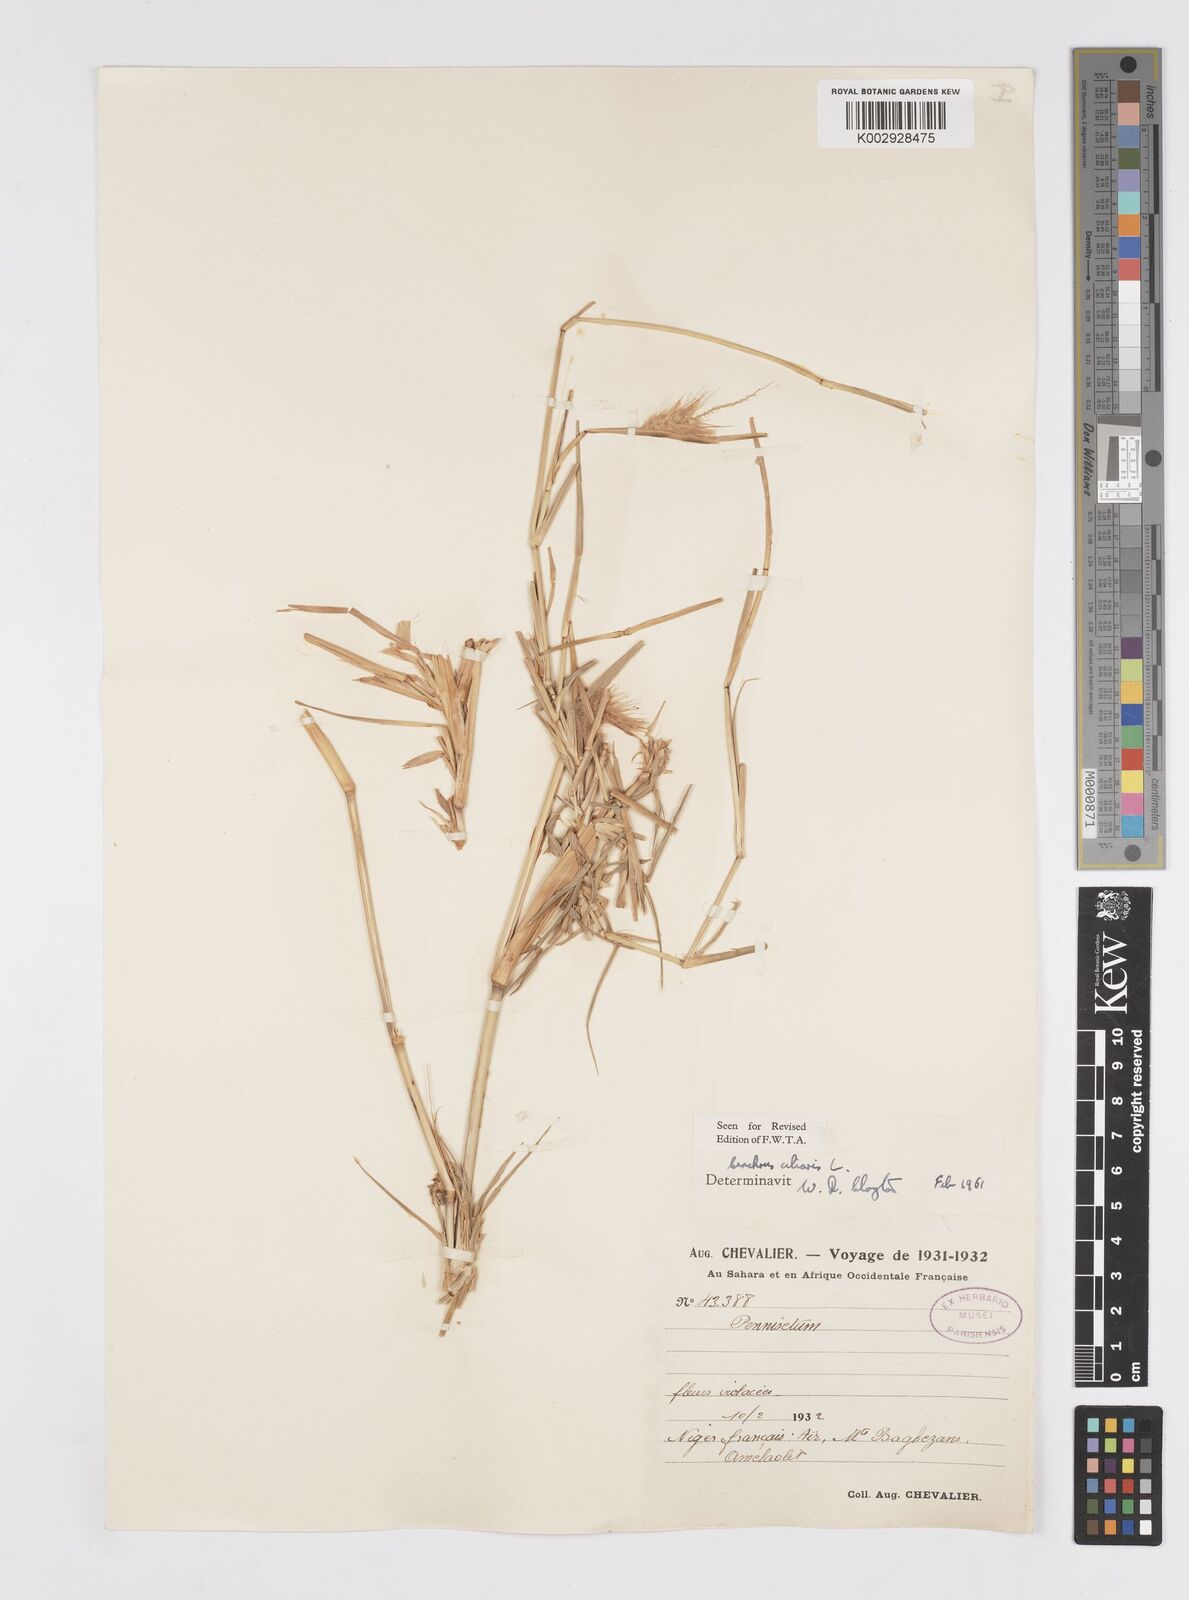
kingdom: Plantae
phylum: Tracheophyta
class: Liliopsida
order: Poales
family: Poaceae
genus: Cenchrus
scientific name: Cenchrus ciliaris
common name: Buffelgrass
